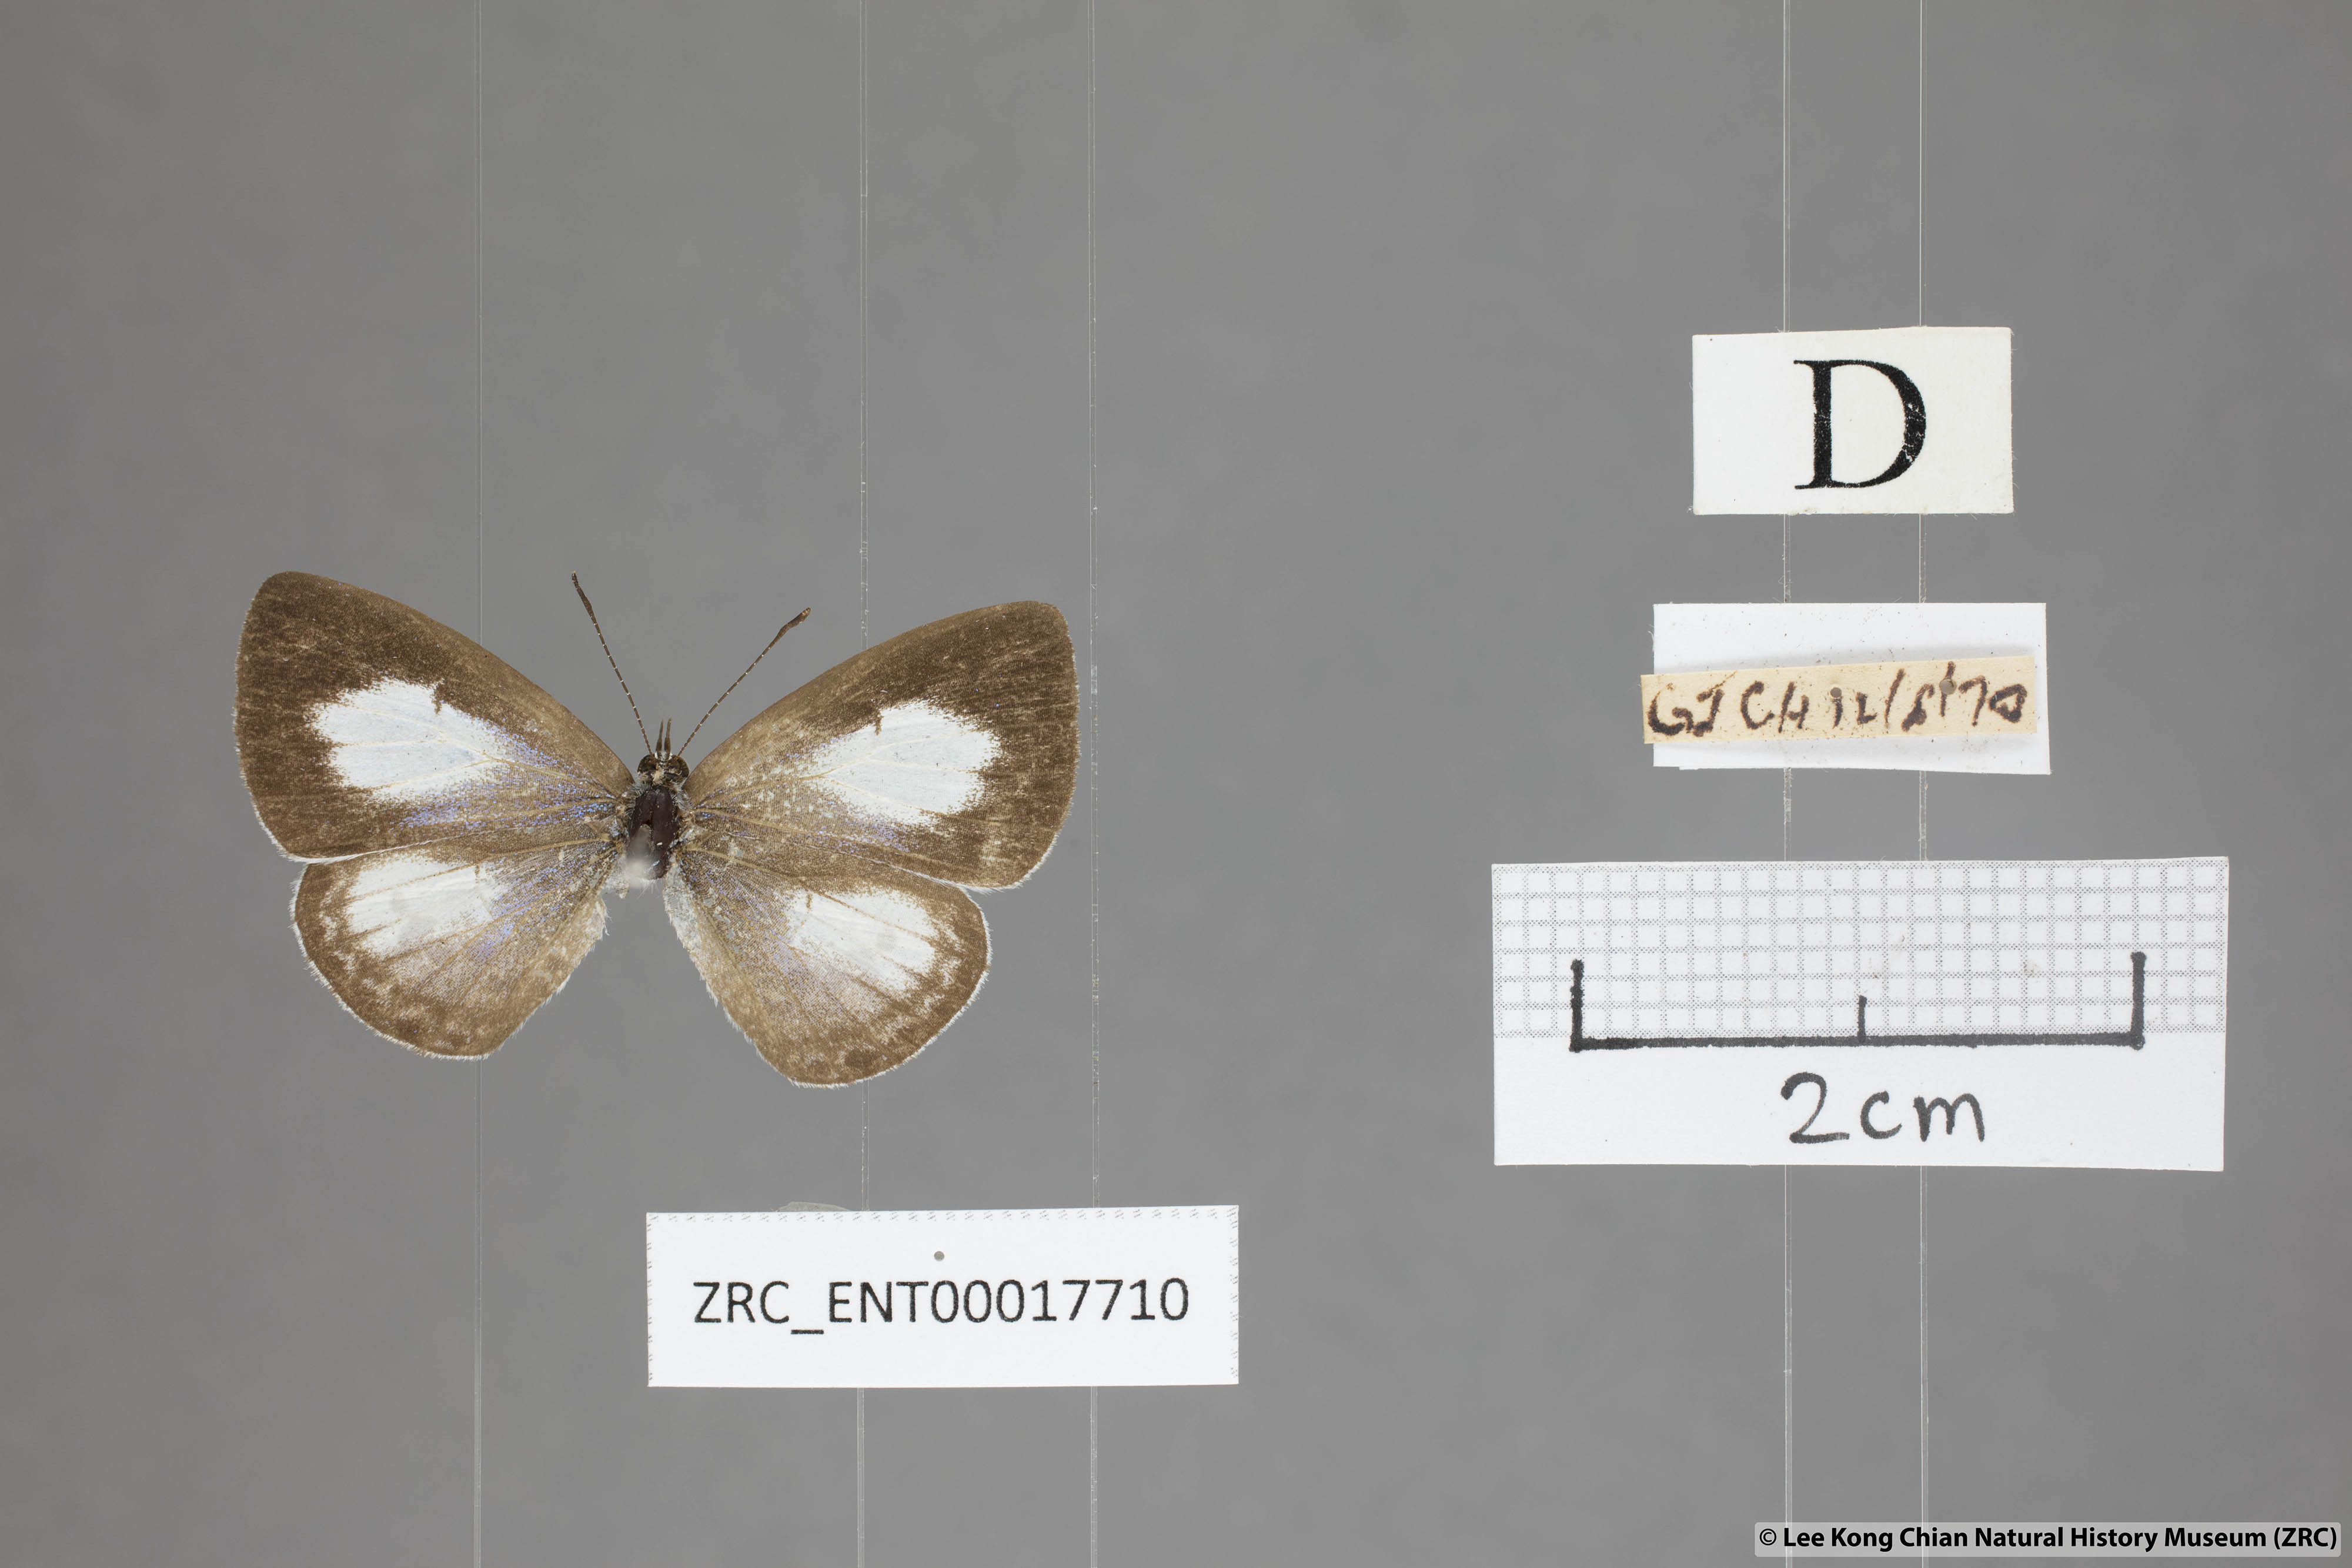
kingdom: Animalia
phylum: Arthropoda
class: Insecta
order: Lepidoptera
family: Lycaenidae
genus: Lycaenopsis
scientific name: Lycaenopsis marginata
